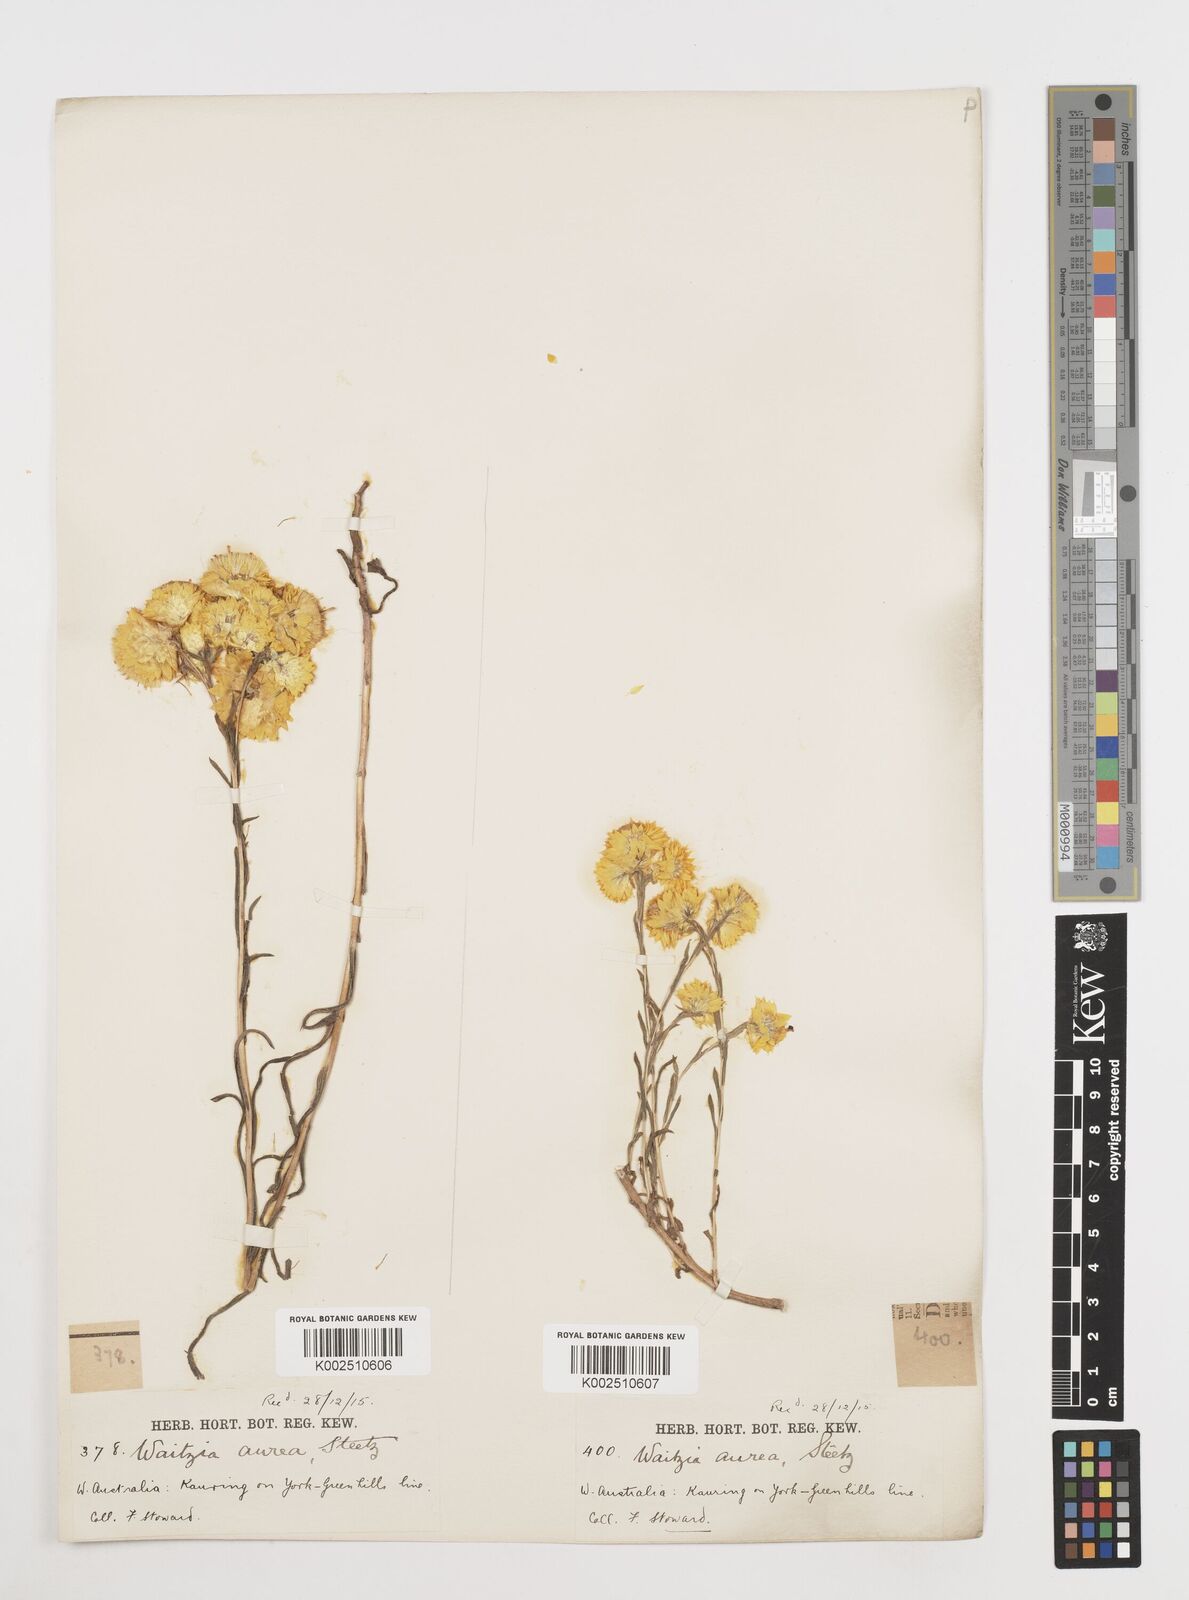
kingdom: Plantae
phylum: Tracheophyta
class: Magnoliopsida
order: Asterales
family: Asteraceae
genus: Waitzia
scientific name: Waitzia nitida
